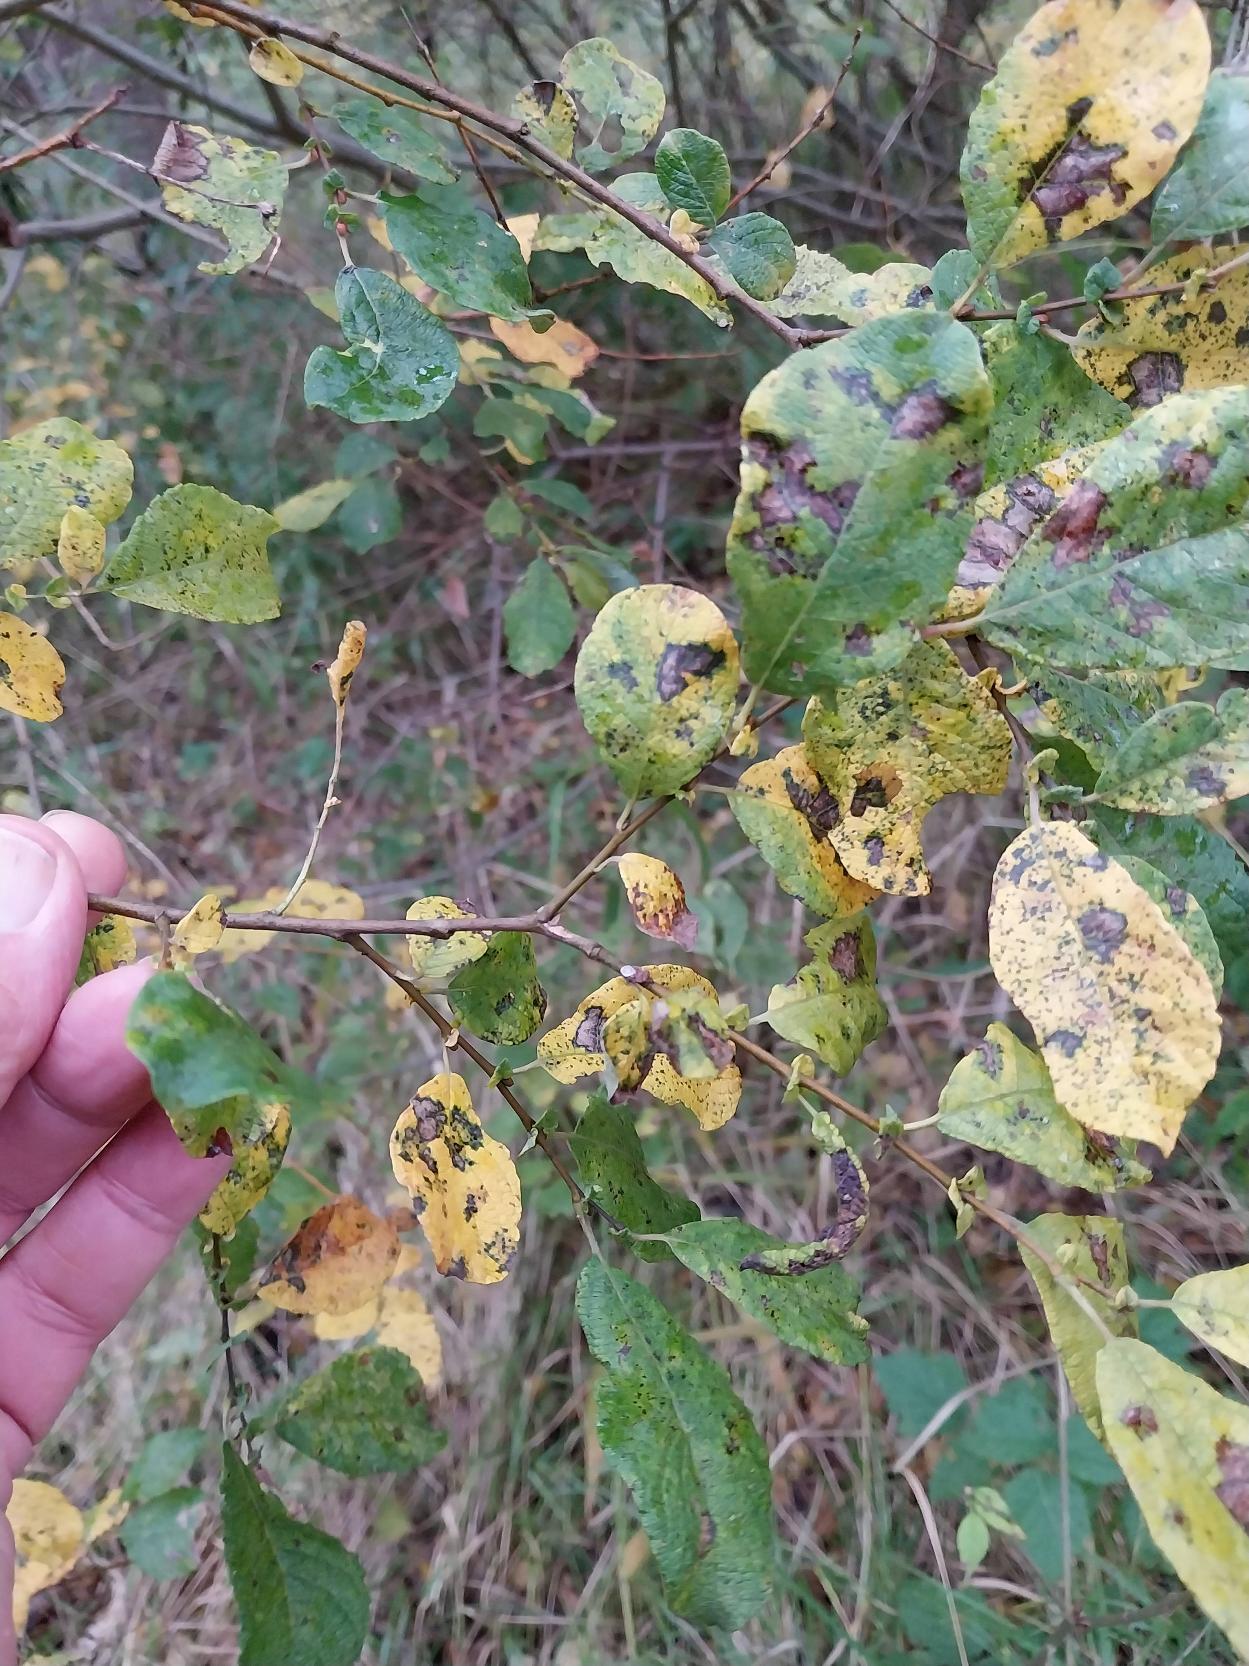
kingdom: Plantae
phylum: Tracheophyta
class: Magnoliopsida
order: Malpighiales
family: Salicaceae
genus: Salix
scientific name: Salix aurita
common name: Øret pil
